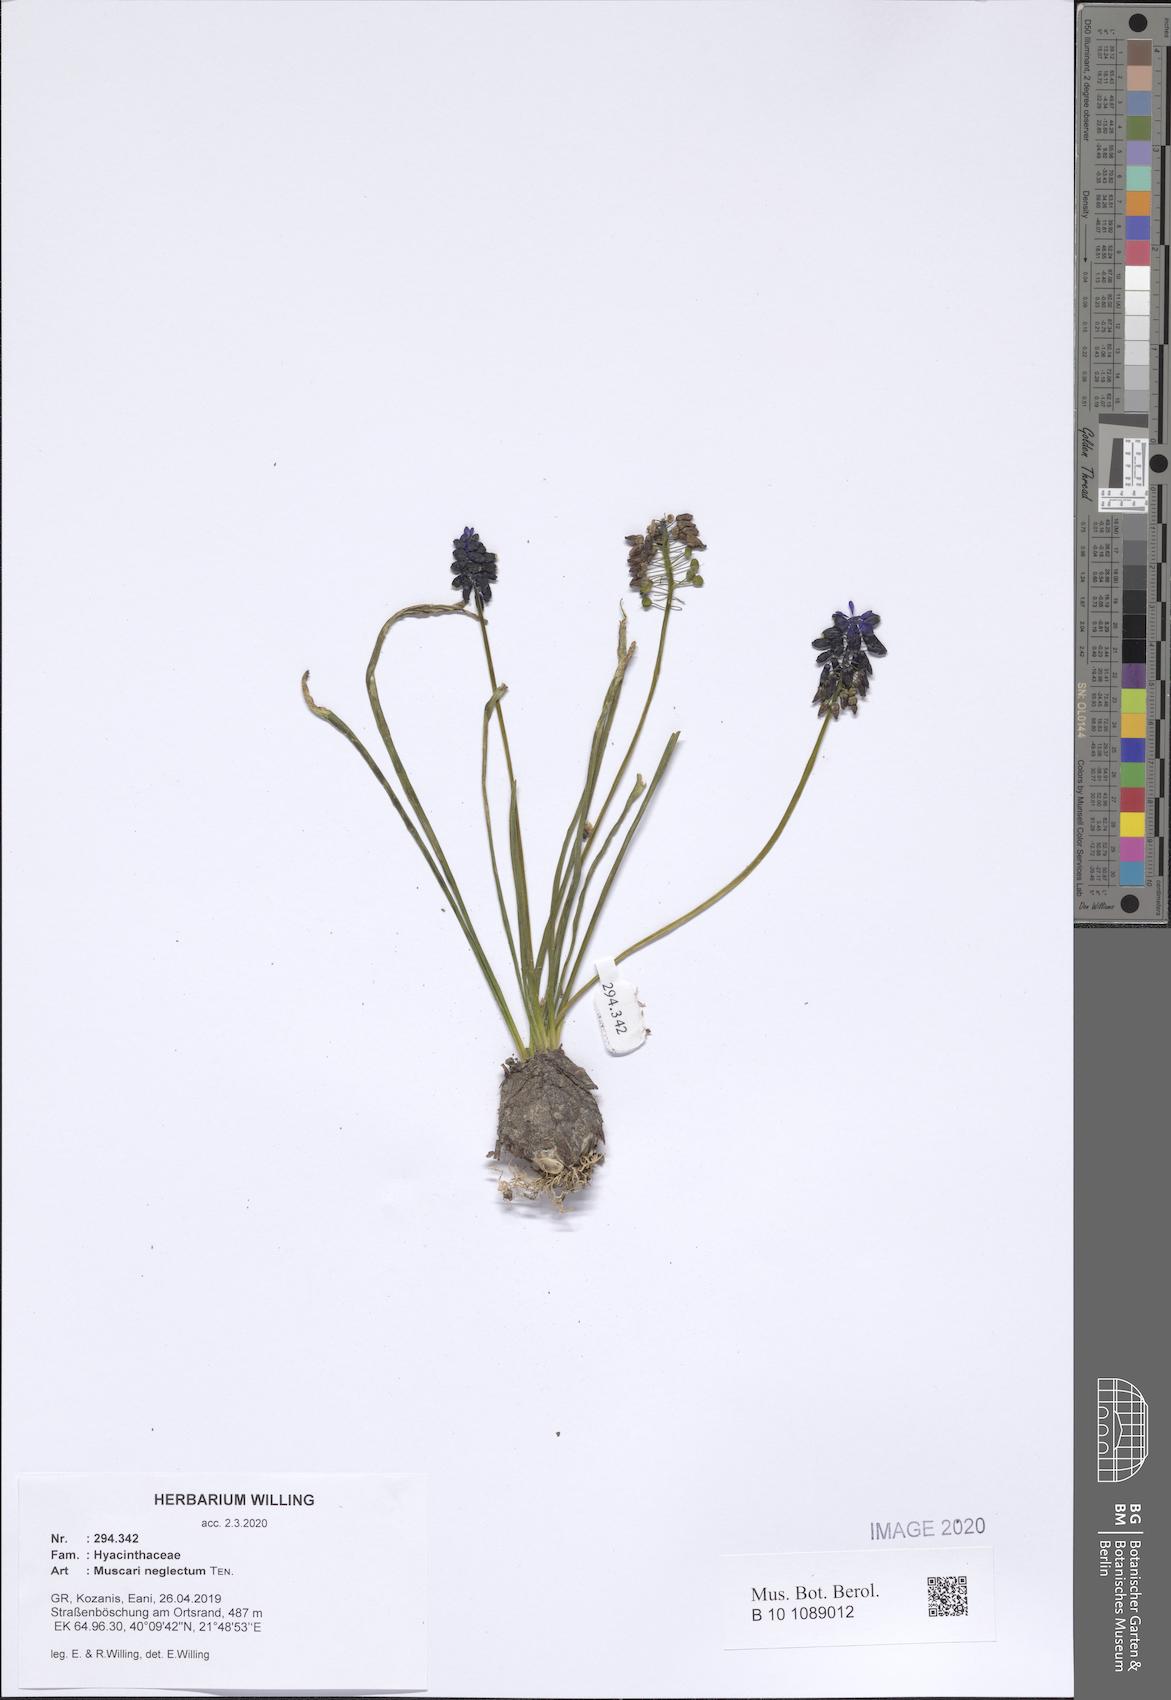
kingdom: Plantae
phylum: Tracheophyta
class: Liliopsida
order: Asparagales
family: Asparagaceae
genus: Muscari
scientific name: Muscari neglectum
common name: Grape-hyacinth
